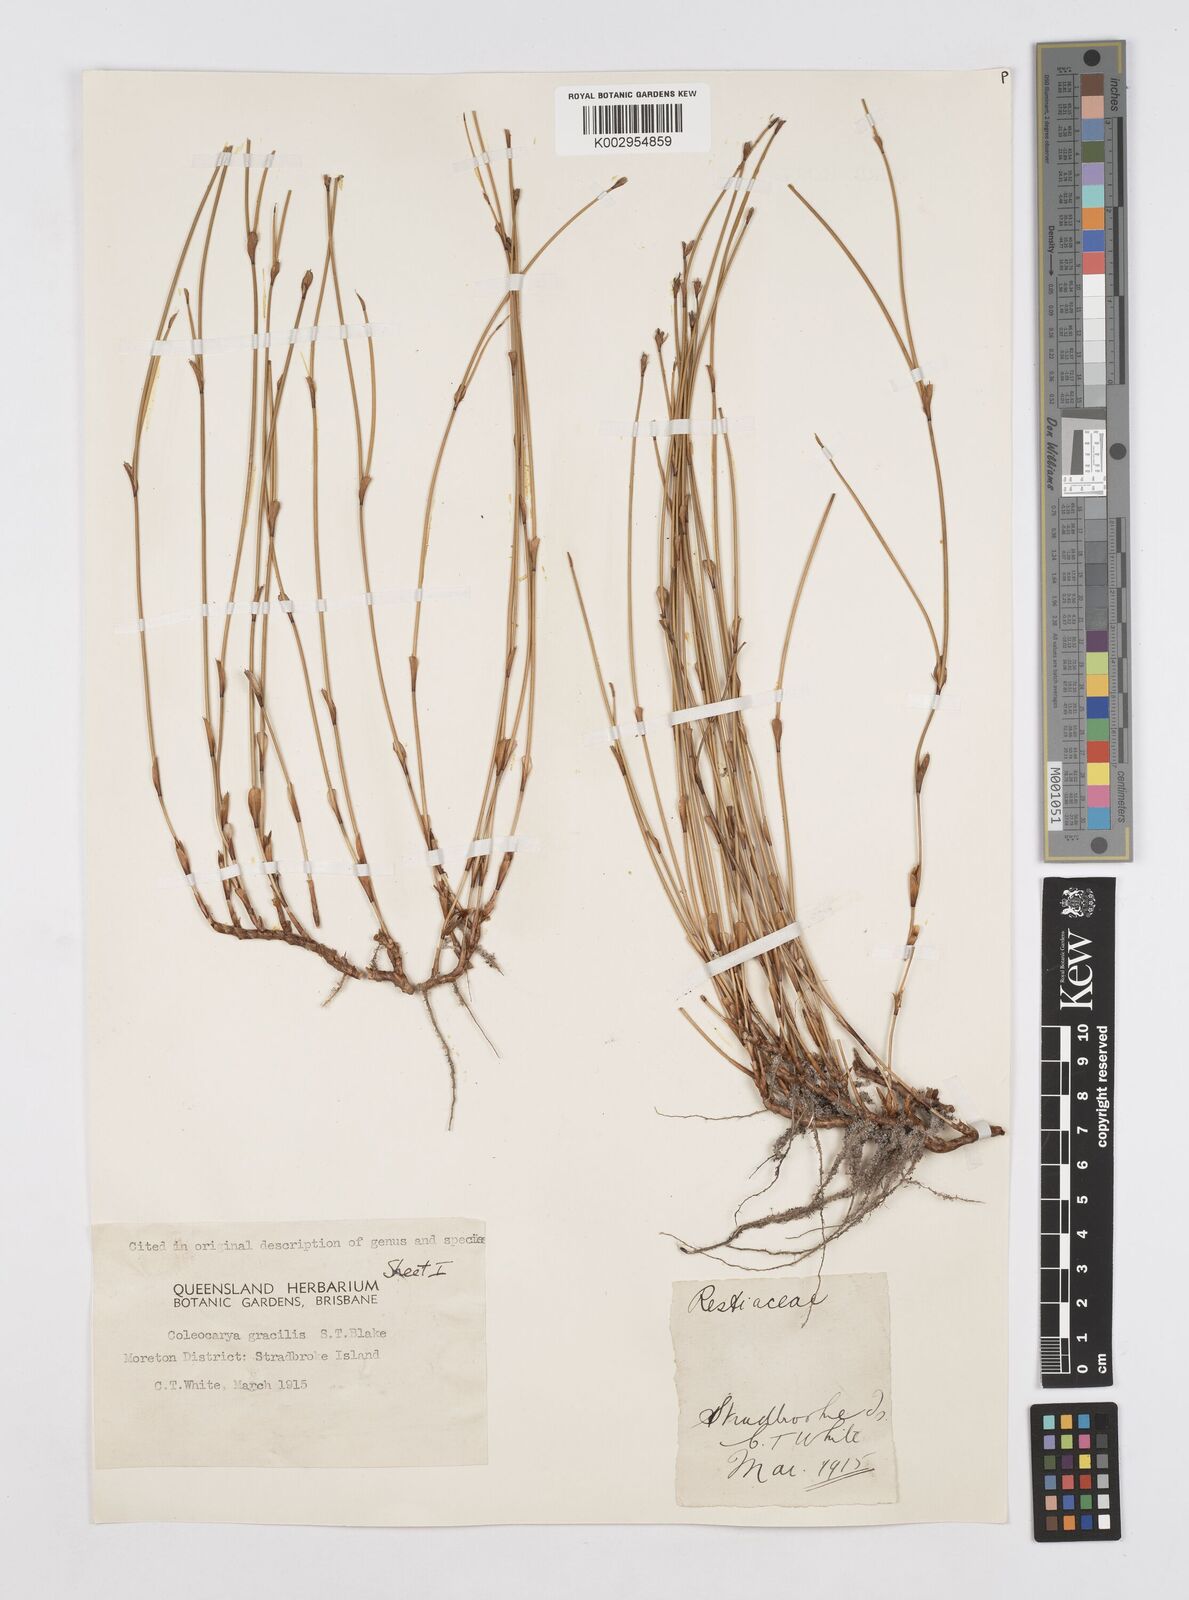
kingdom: Plantae
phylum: Tracheophyta
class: Liliopsida
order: Poales
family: Restionaceae
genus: Coleocarya
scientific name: Coleocarya gracilis
